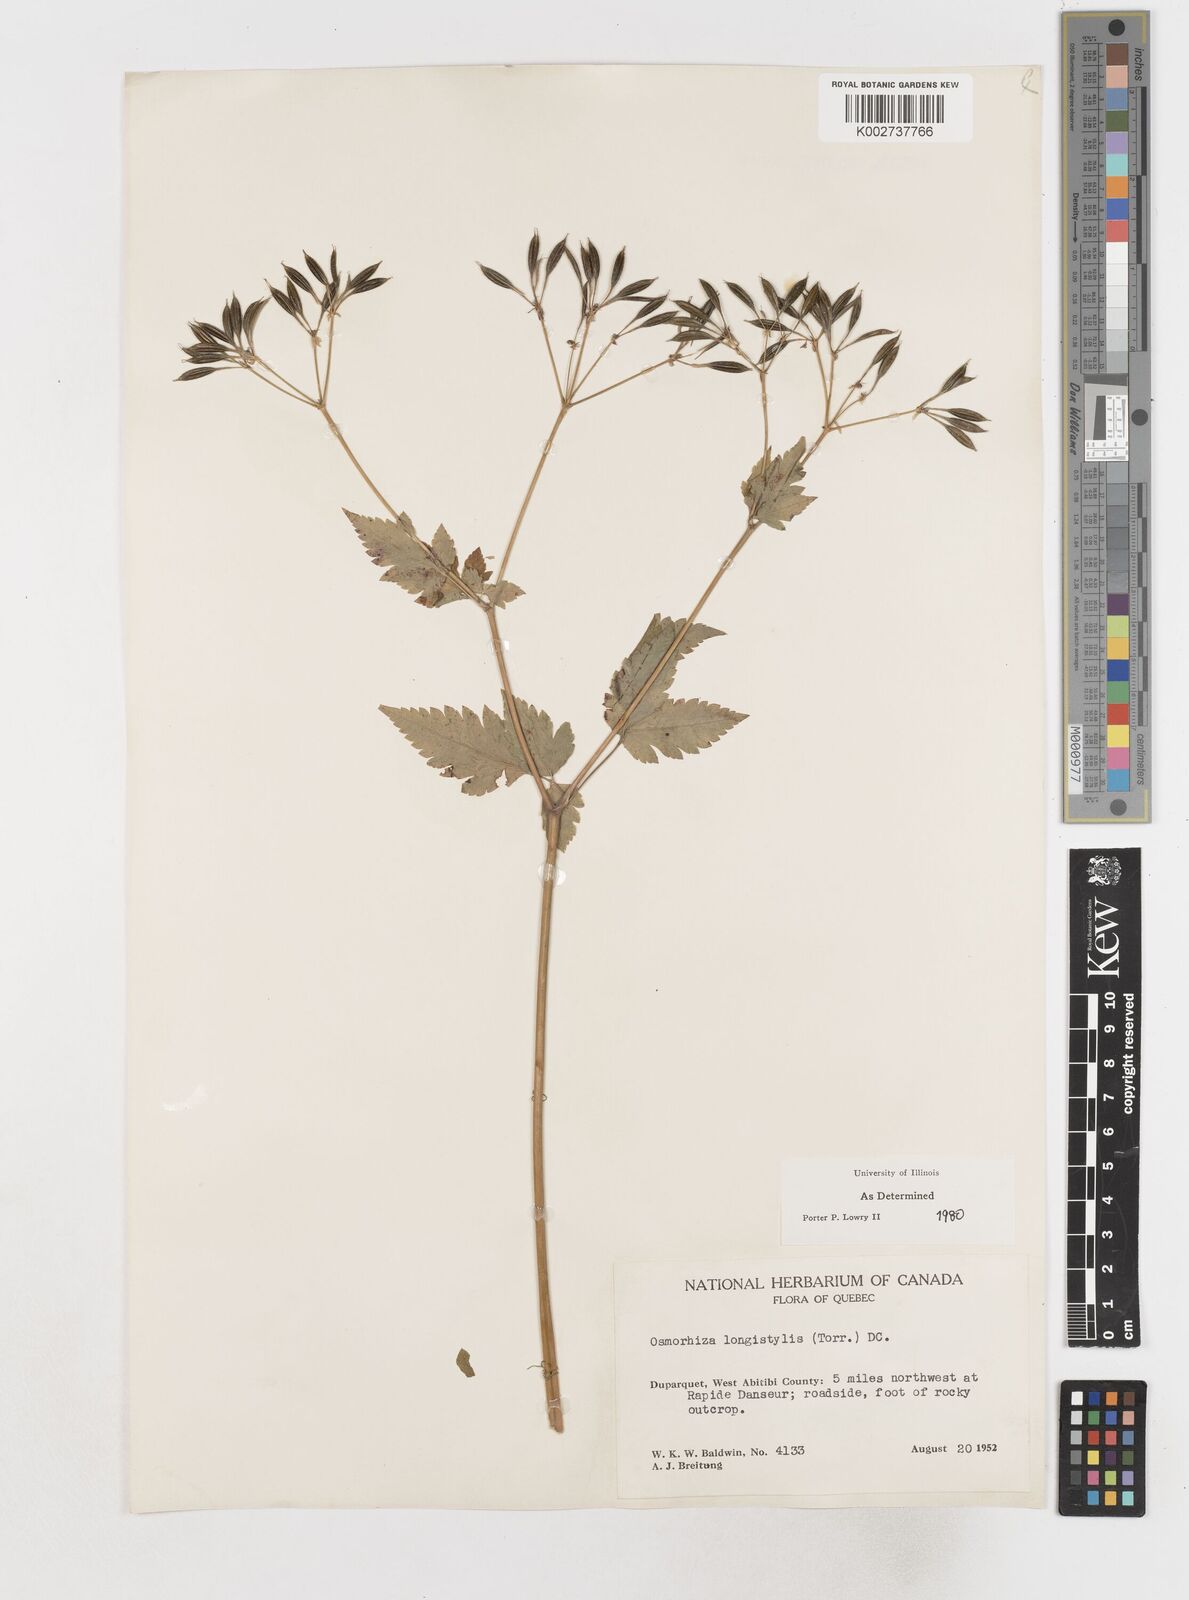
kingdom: Plantae
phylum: Tracheophyta
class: Magnoliopsida
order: Apiales
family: Apiaceae
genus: Osmorhiza
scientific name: Osmorhiza longistylis
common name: Smooth sweet cicely
